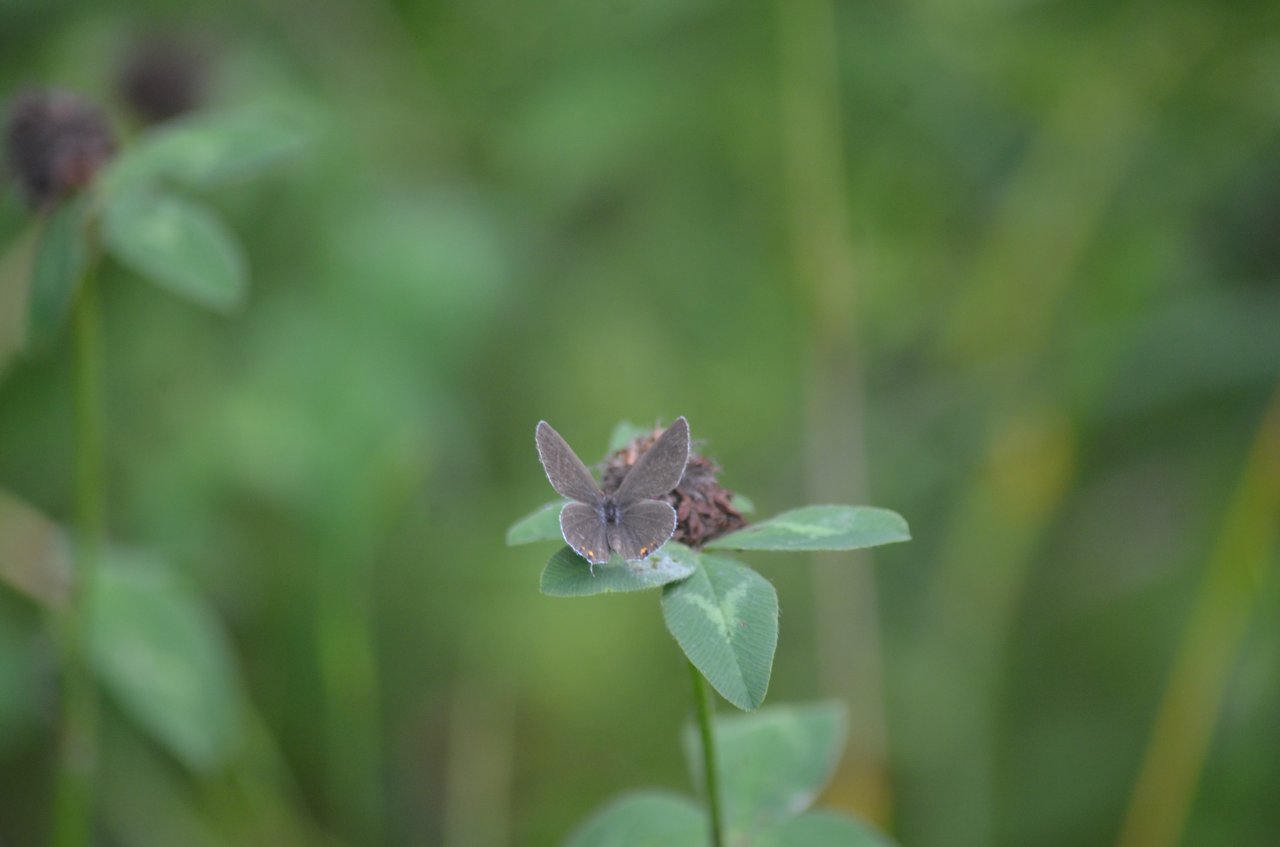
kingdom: Animalia
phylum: Arthropoda
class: Insecta
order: Lepidoptera
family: Lycaenidae
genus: Elkalyce
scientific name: Elkalyce comyntas
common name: Eastern Tailed-Blue
